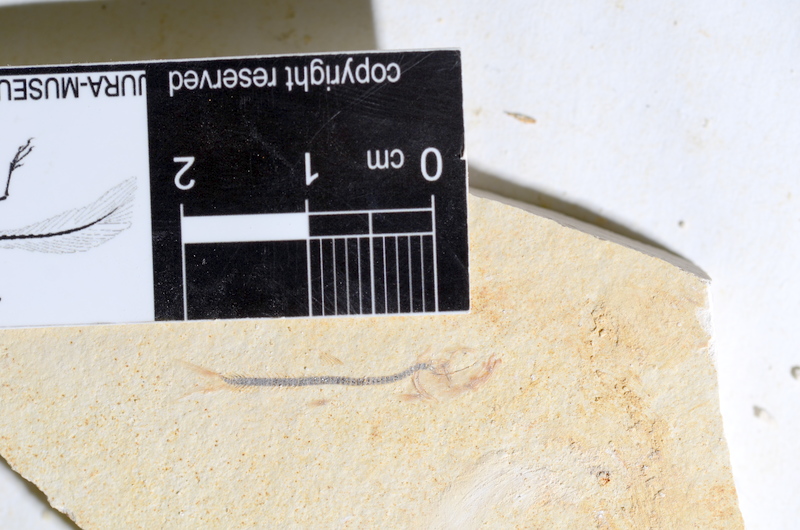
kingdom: Animalia
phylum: Chordata
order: Salmoniformes
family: Orthogonikleithridae
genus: Orthogonikleithrus
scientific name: Orthogonikleithrus hoelli
